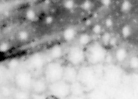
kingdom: Animalia
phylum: Chordata
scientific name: Chordata
